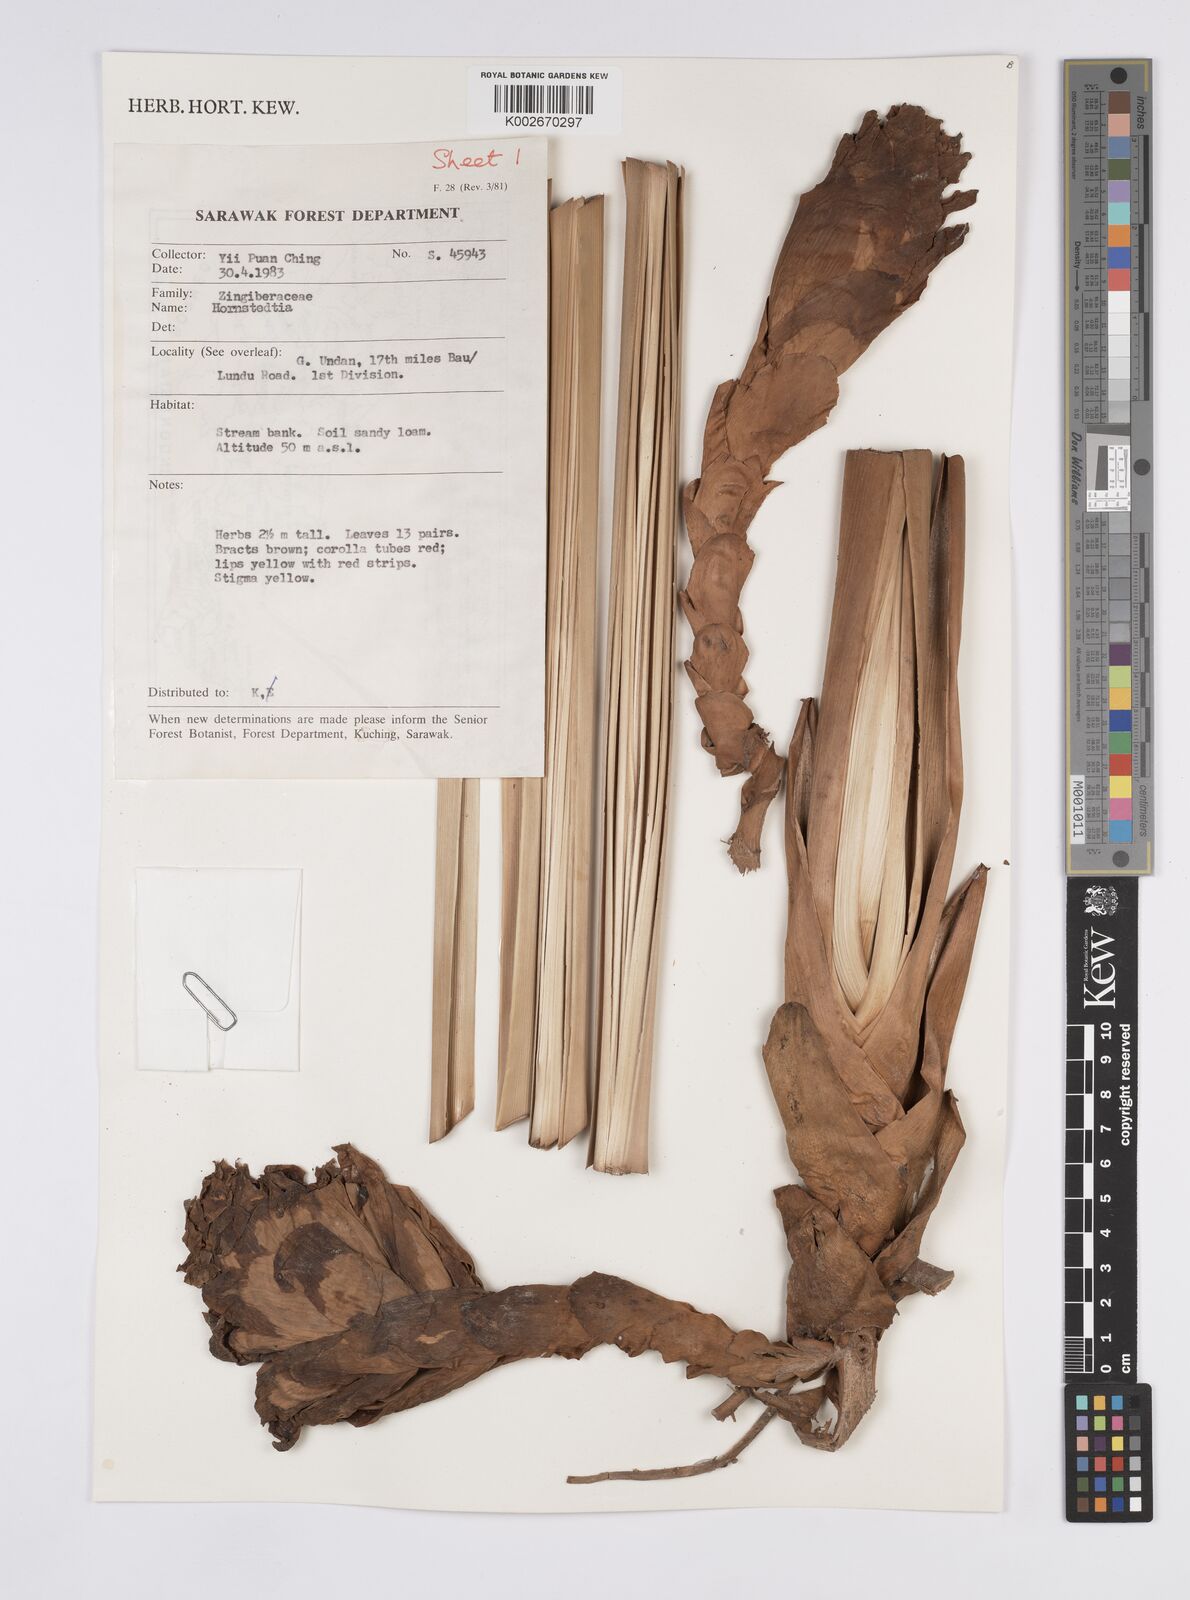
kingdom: Plantae
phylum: Tracheophyta
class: Liliopsida
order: Zingiberales
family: Zingiberaceae
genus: Hornstedtia
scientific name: Hornstedtia
